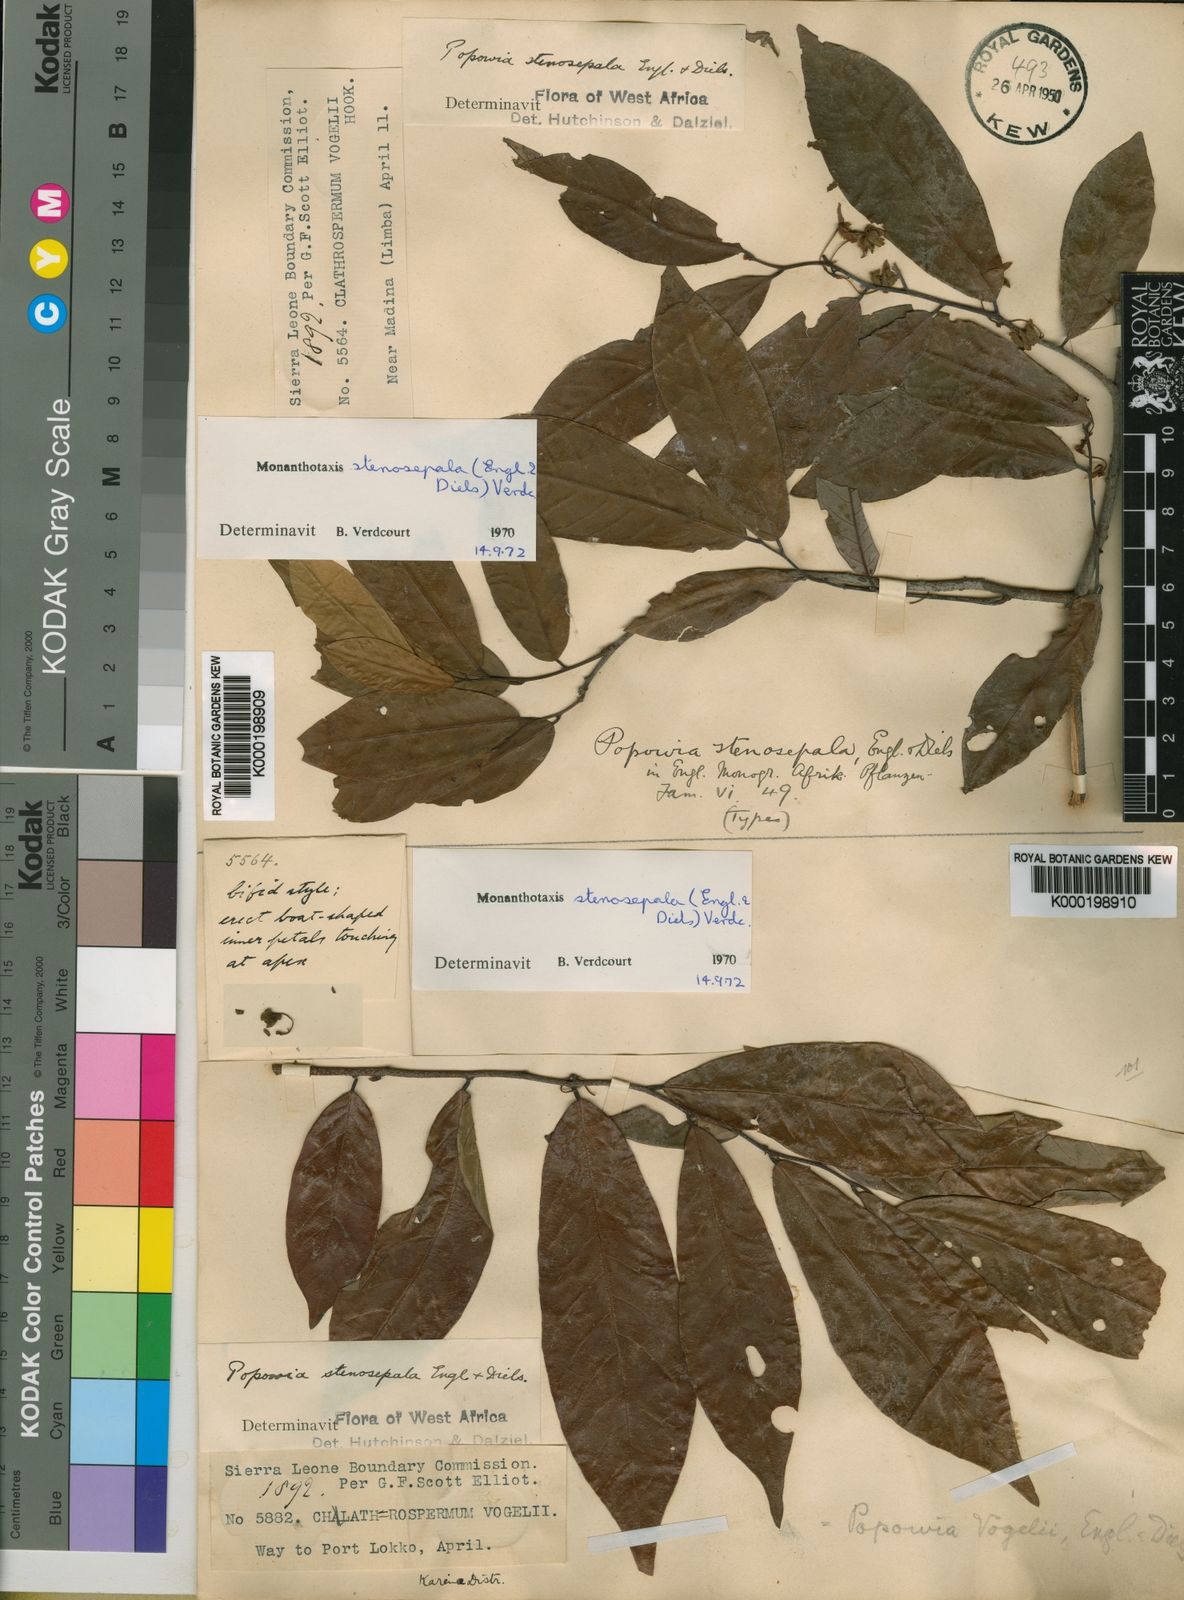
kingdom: Plantae
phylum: Tracheophyta
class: Magnoliopsida
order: Magnoliales
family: Annonaceae
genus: Monanthotaxis
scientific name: Monanthotaxis stenosepala
